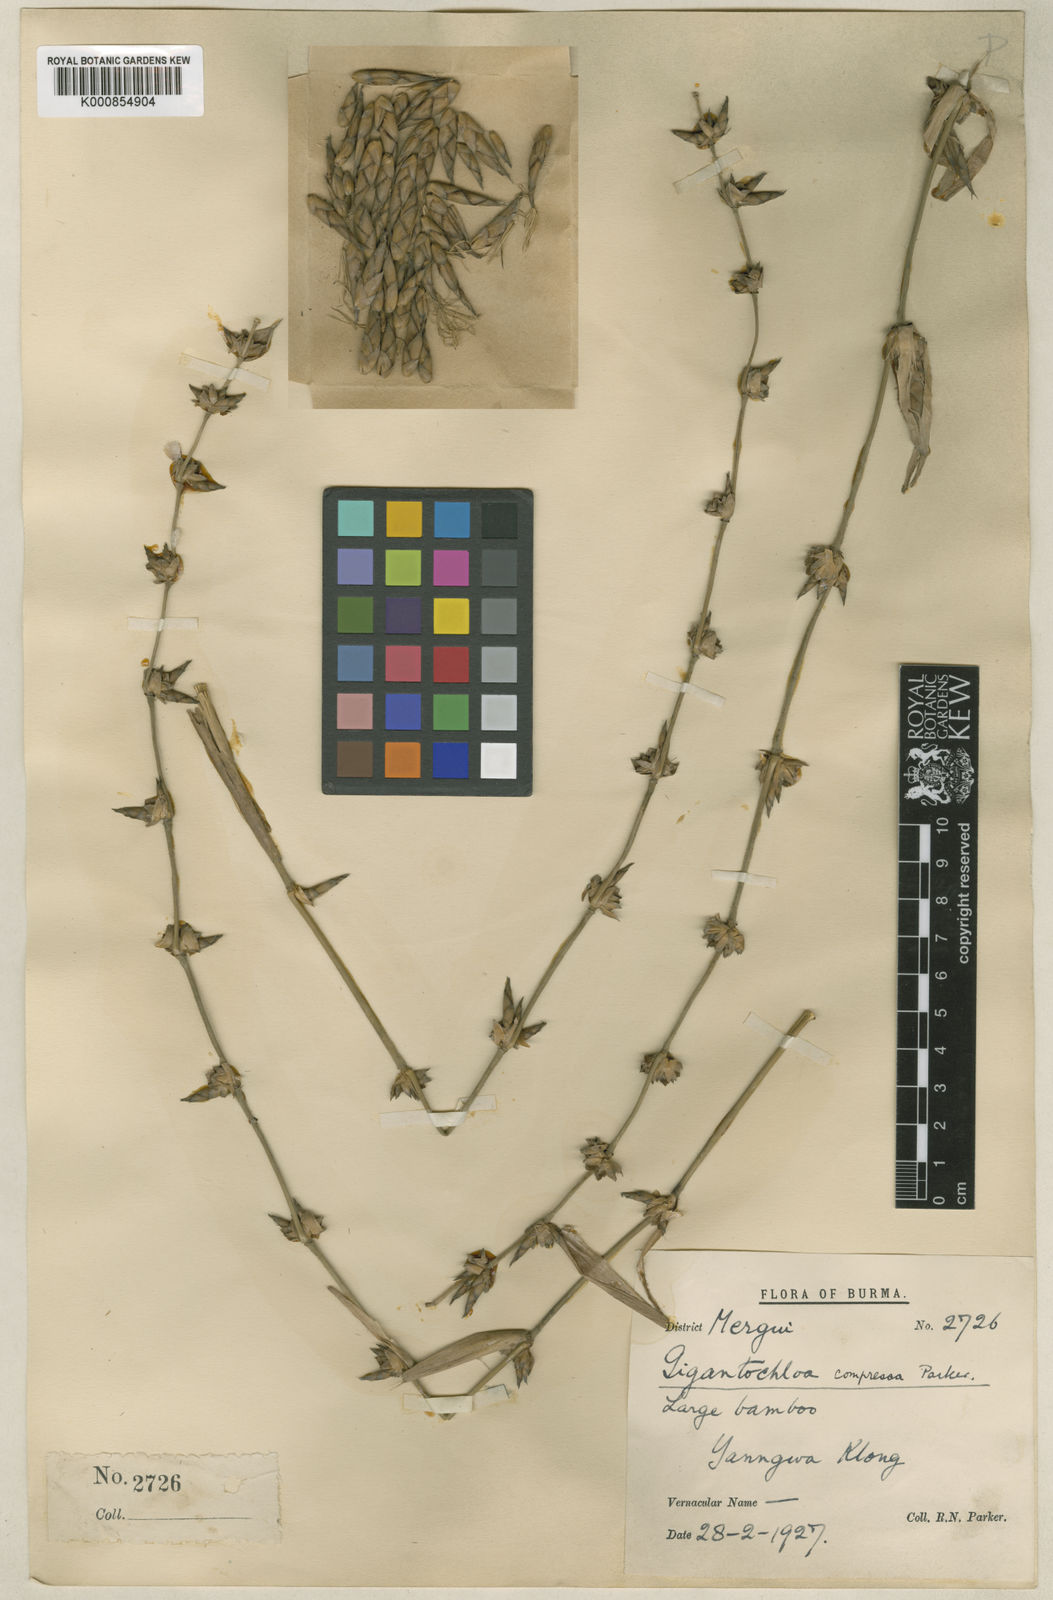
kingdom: Plantae
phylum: Tracheophyta
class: Liliopsida
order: Poales
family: Poaceae
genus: Gigantochloa
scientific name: Gigantochloa compressa
